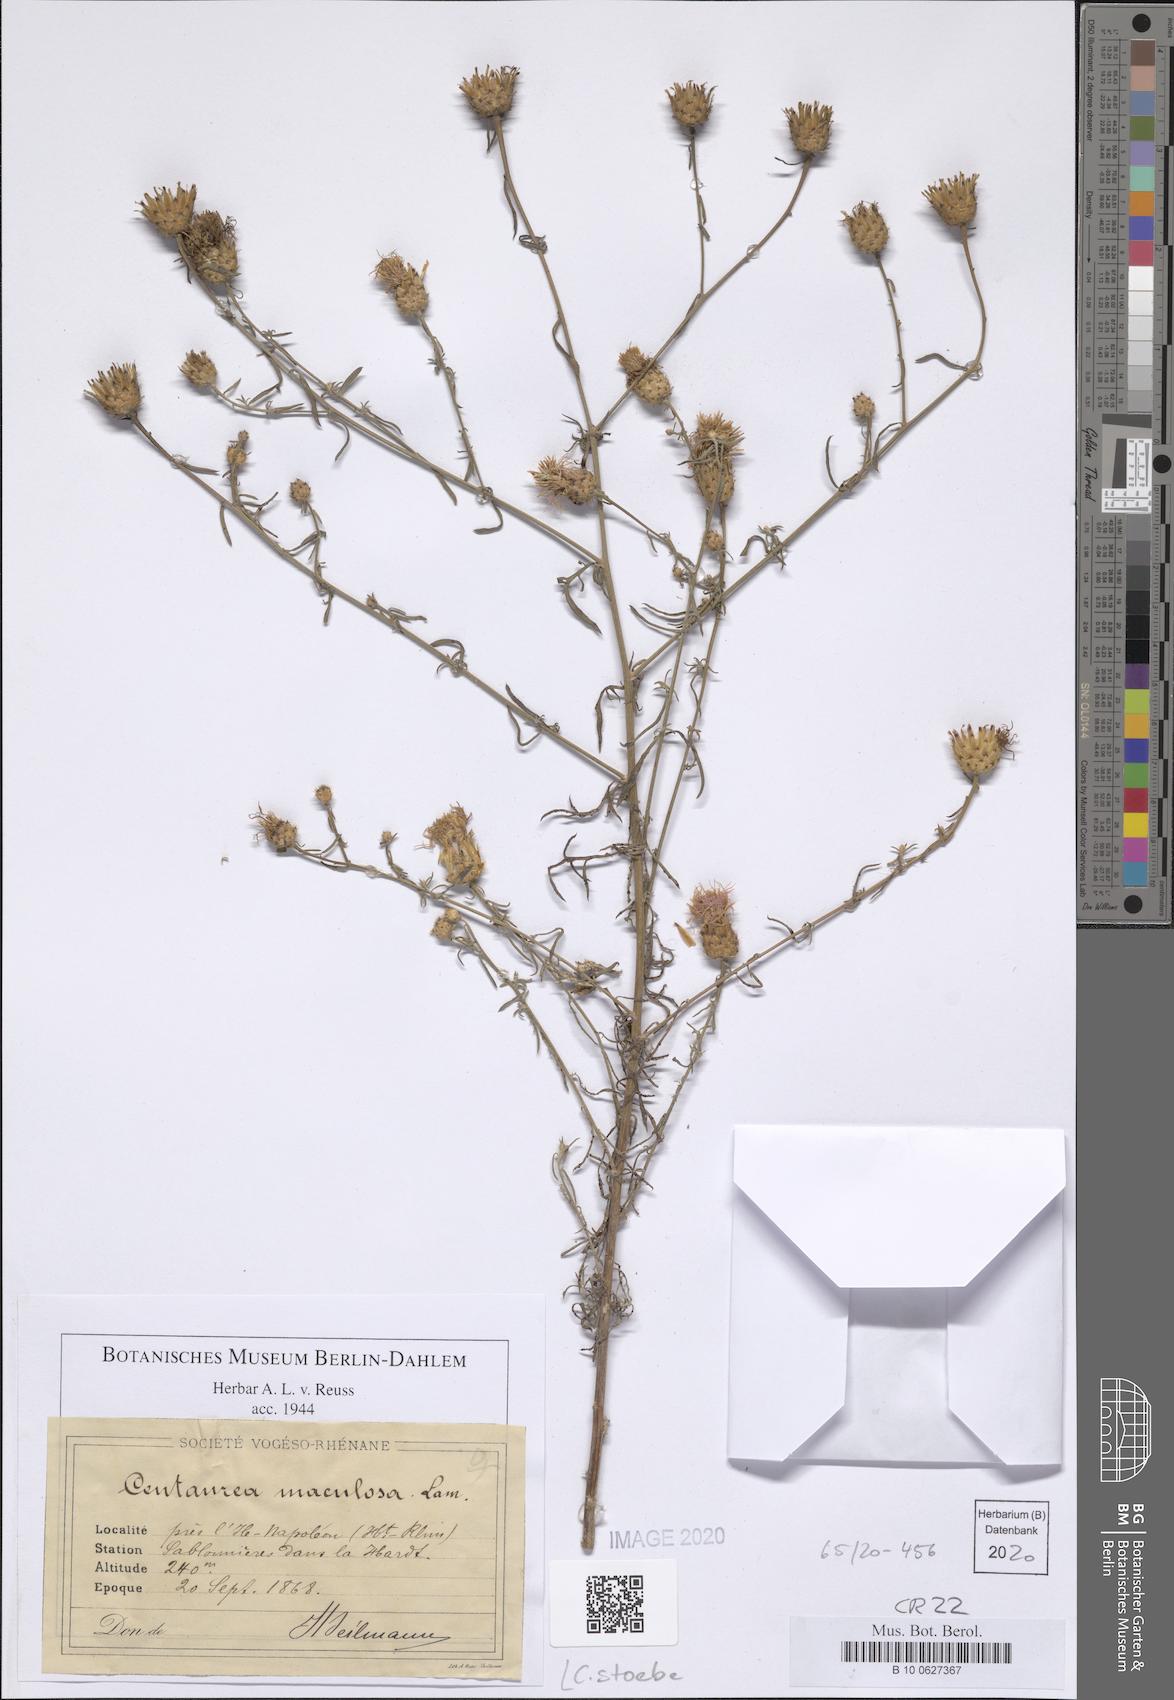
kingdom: Plantae
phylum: Tracheophyta
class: Magnoliopsida
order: Asterales
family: Asteraceae
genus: Centaurea
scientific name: Centaurea stoebe
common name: Spotted knapweed
